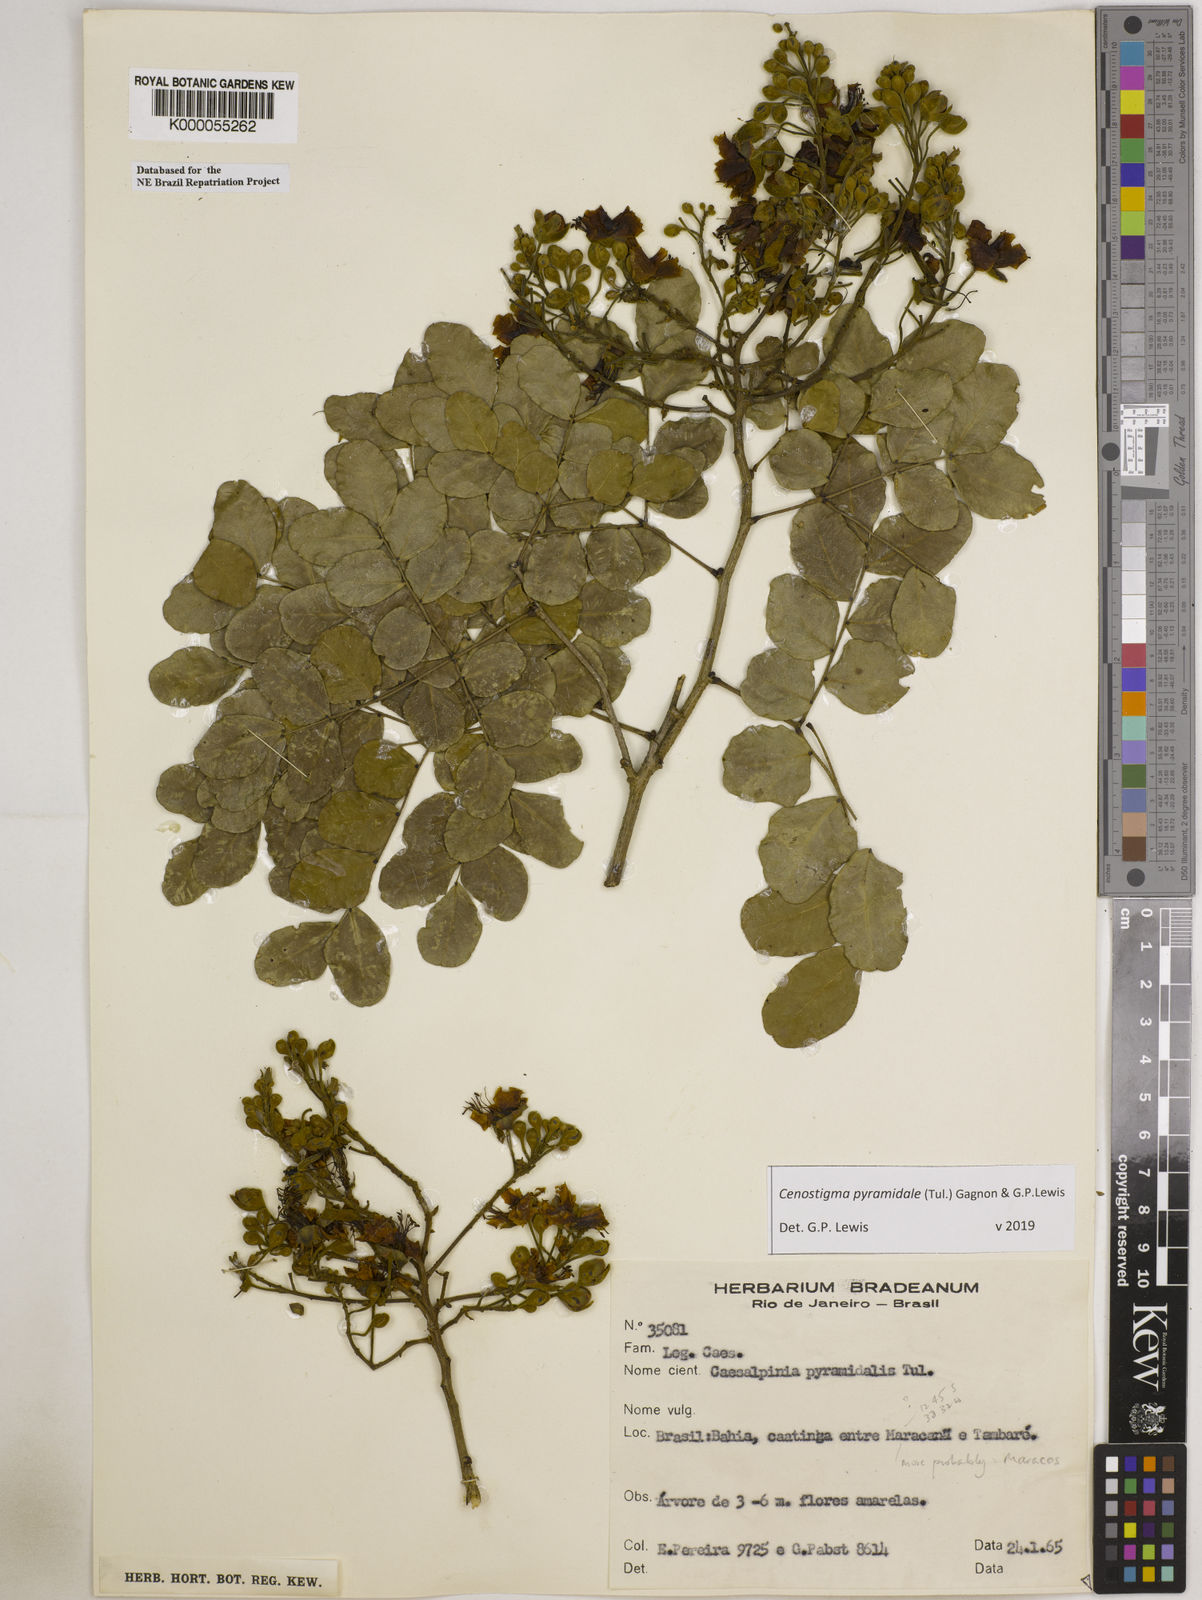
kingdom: Plantae
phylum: Tracheophyta
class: Magnoliopsida
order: Fabales
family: Fabaceae
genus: Cenostigma
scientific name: Cenostigma pyramidale
